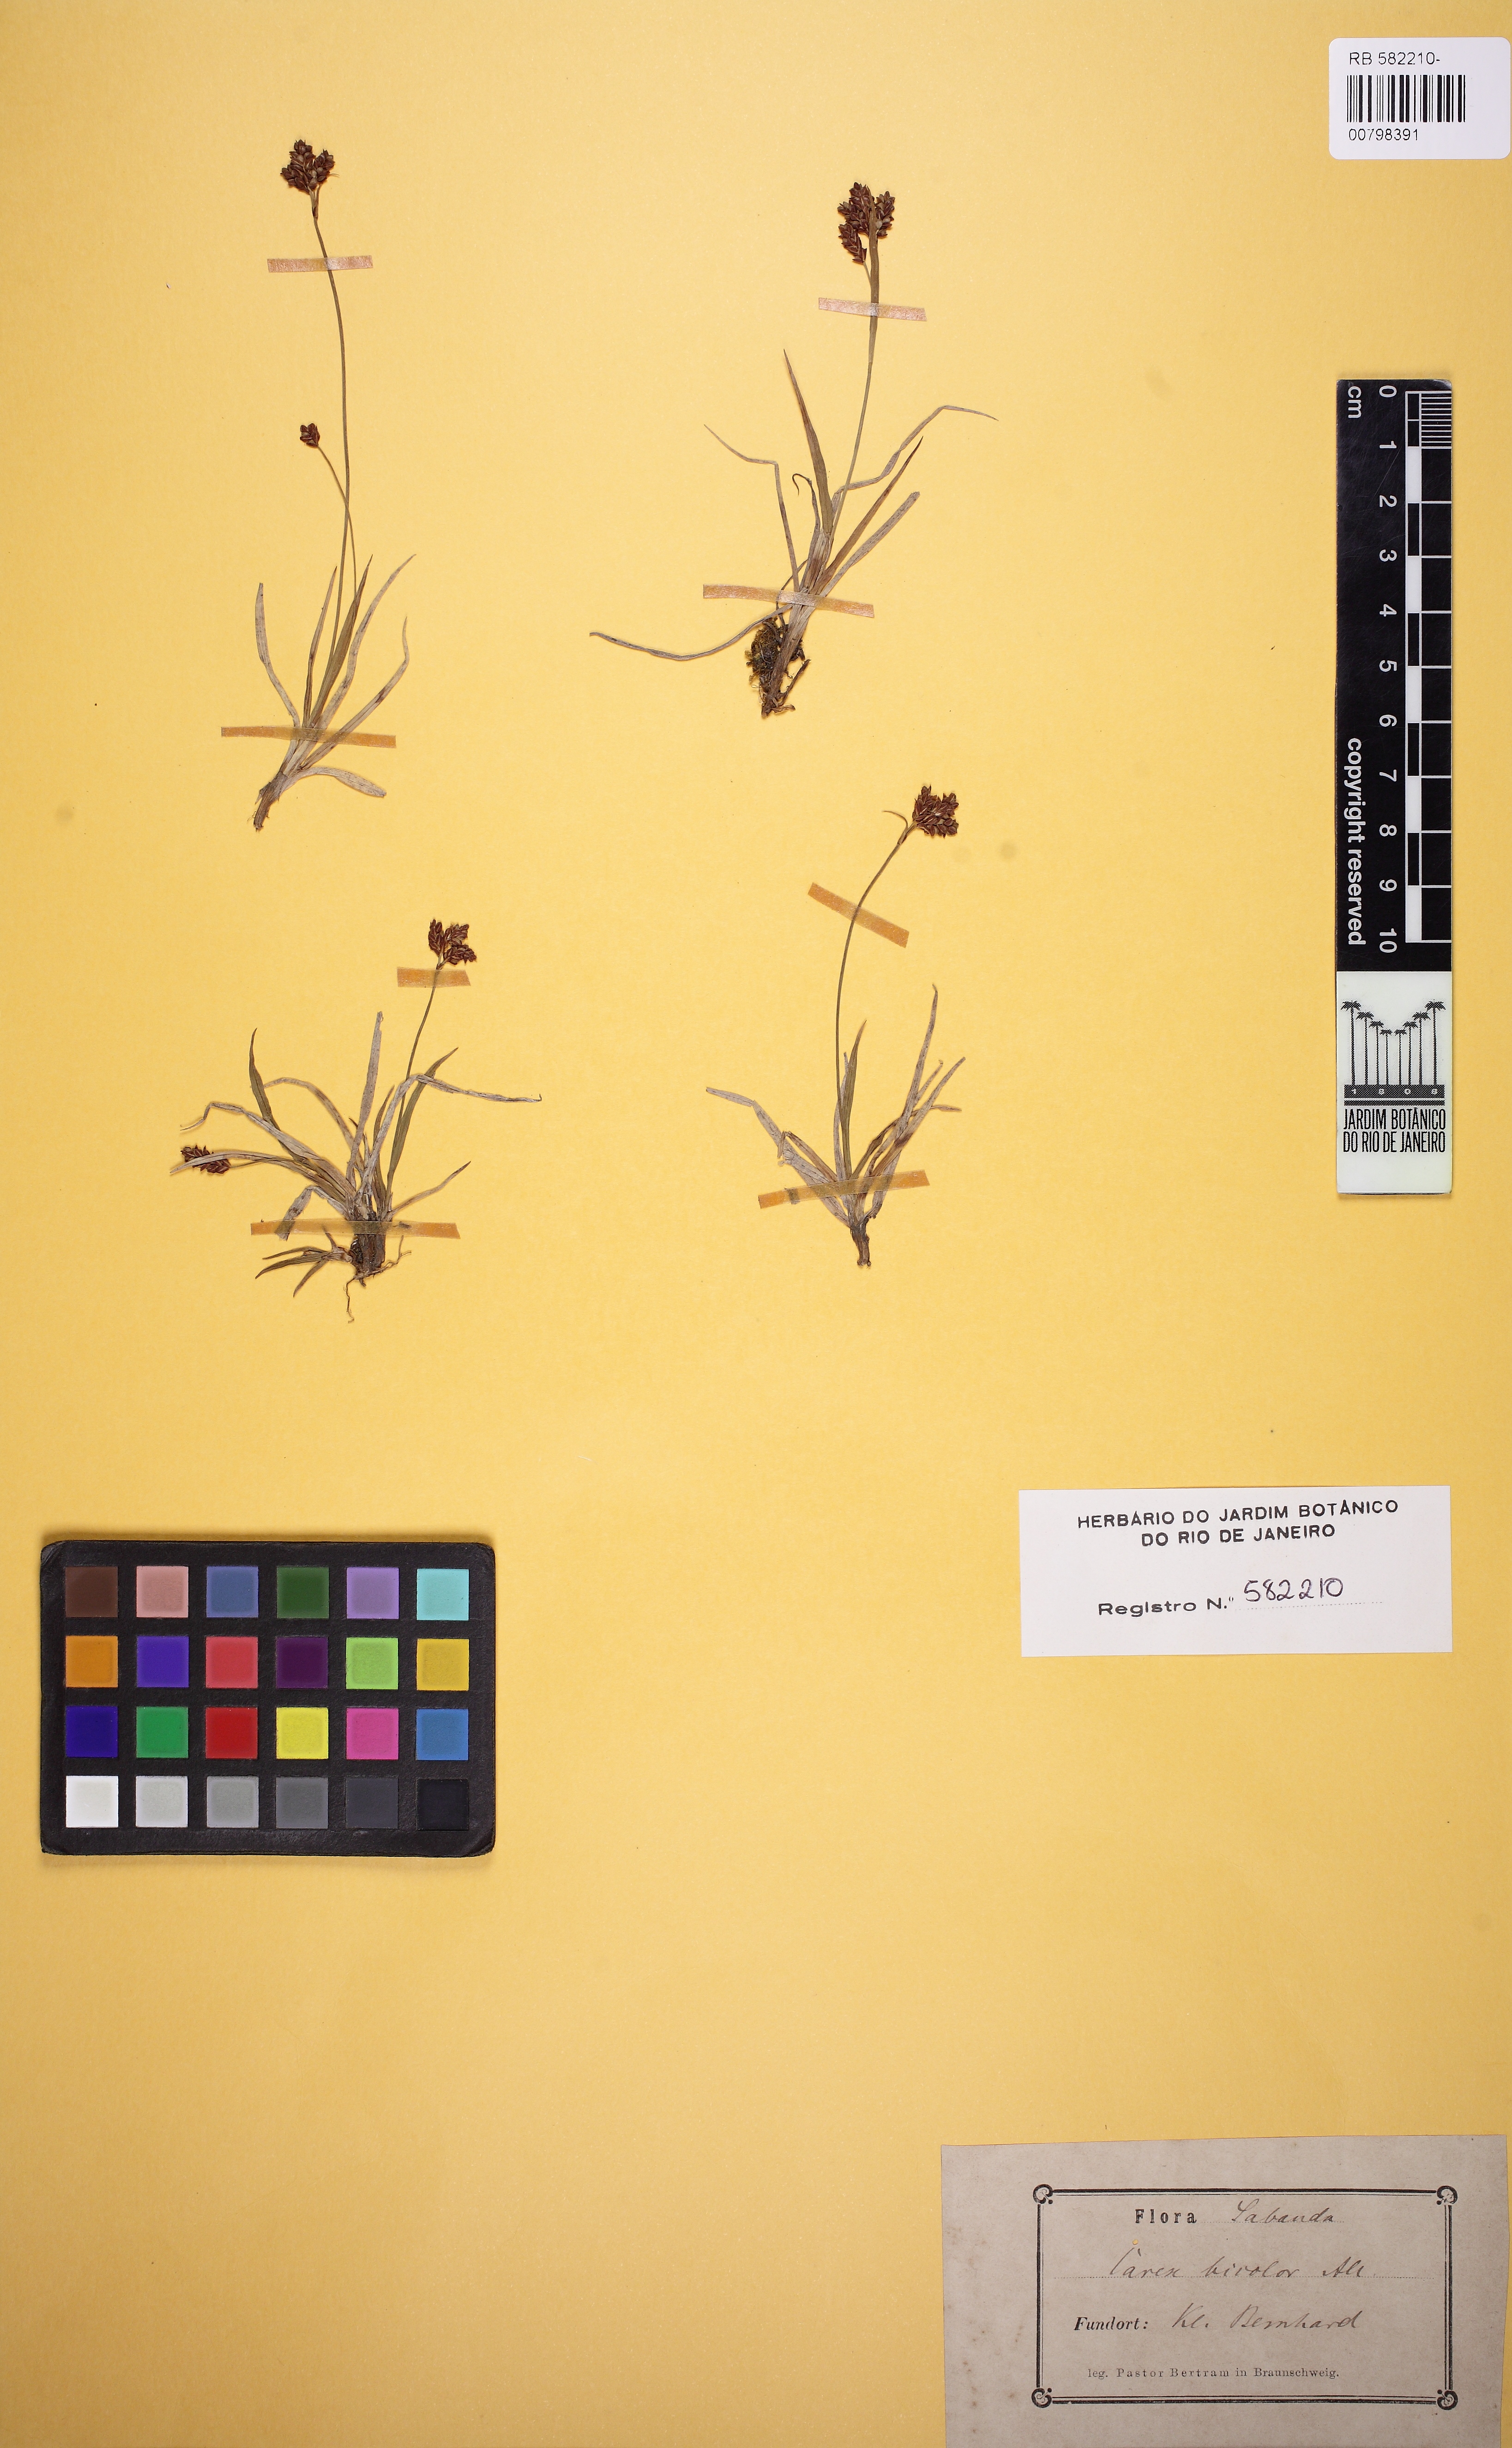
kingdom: Plantae
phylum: Tracheophyta
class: Liliopsida
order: Poales
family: Cyperaceae
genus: Carex
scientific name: Carex bicolor
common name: Bicoloured sedge
